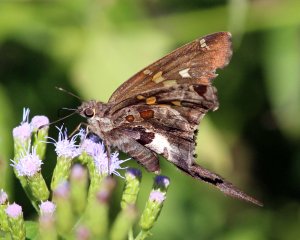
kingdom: Animalia
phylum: Arthropoda
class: Insecta
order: Lepidoptera
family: Hesperiidae
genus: Chioides
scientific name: Chioides zilpa
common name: Zilpa Longtail
